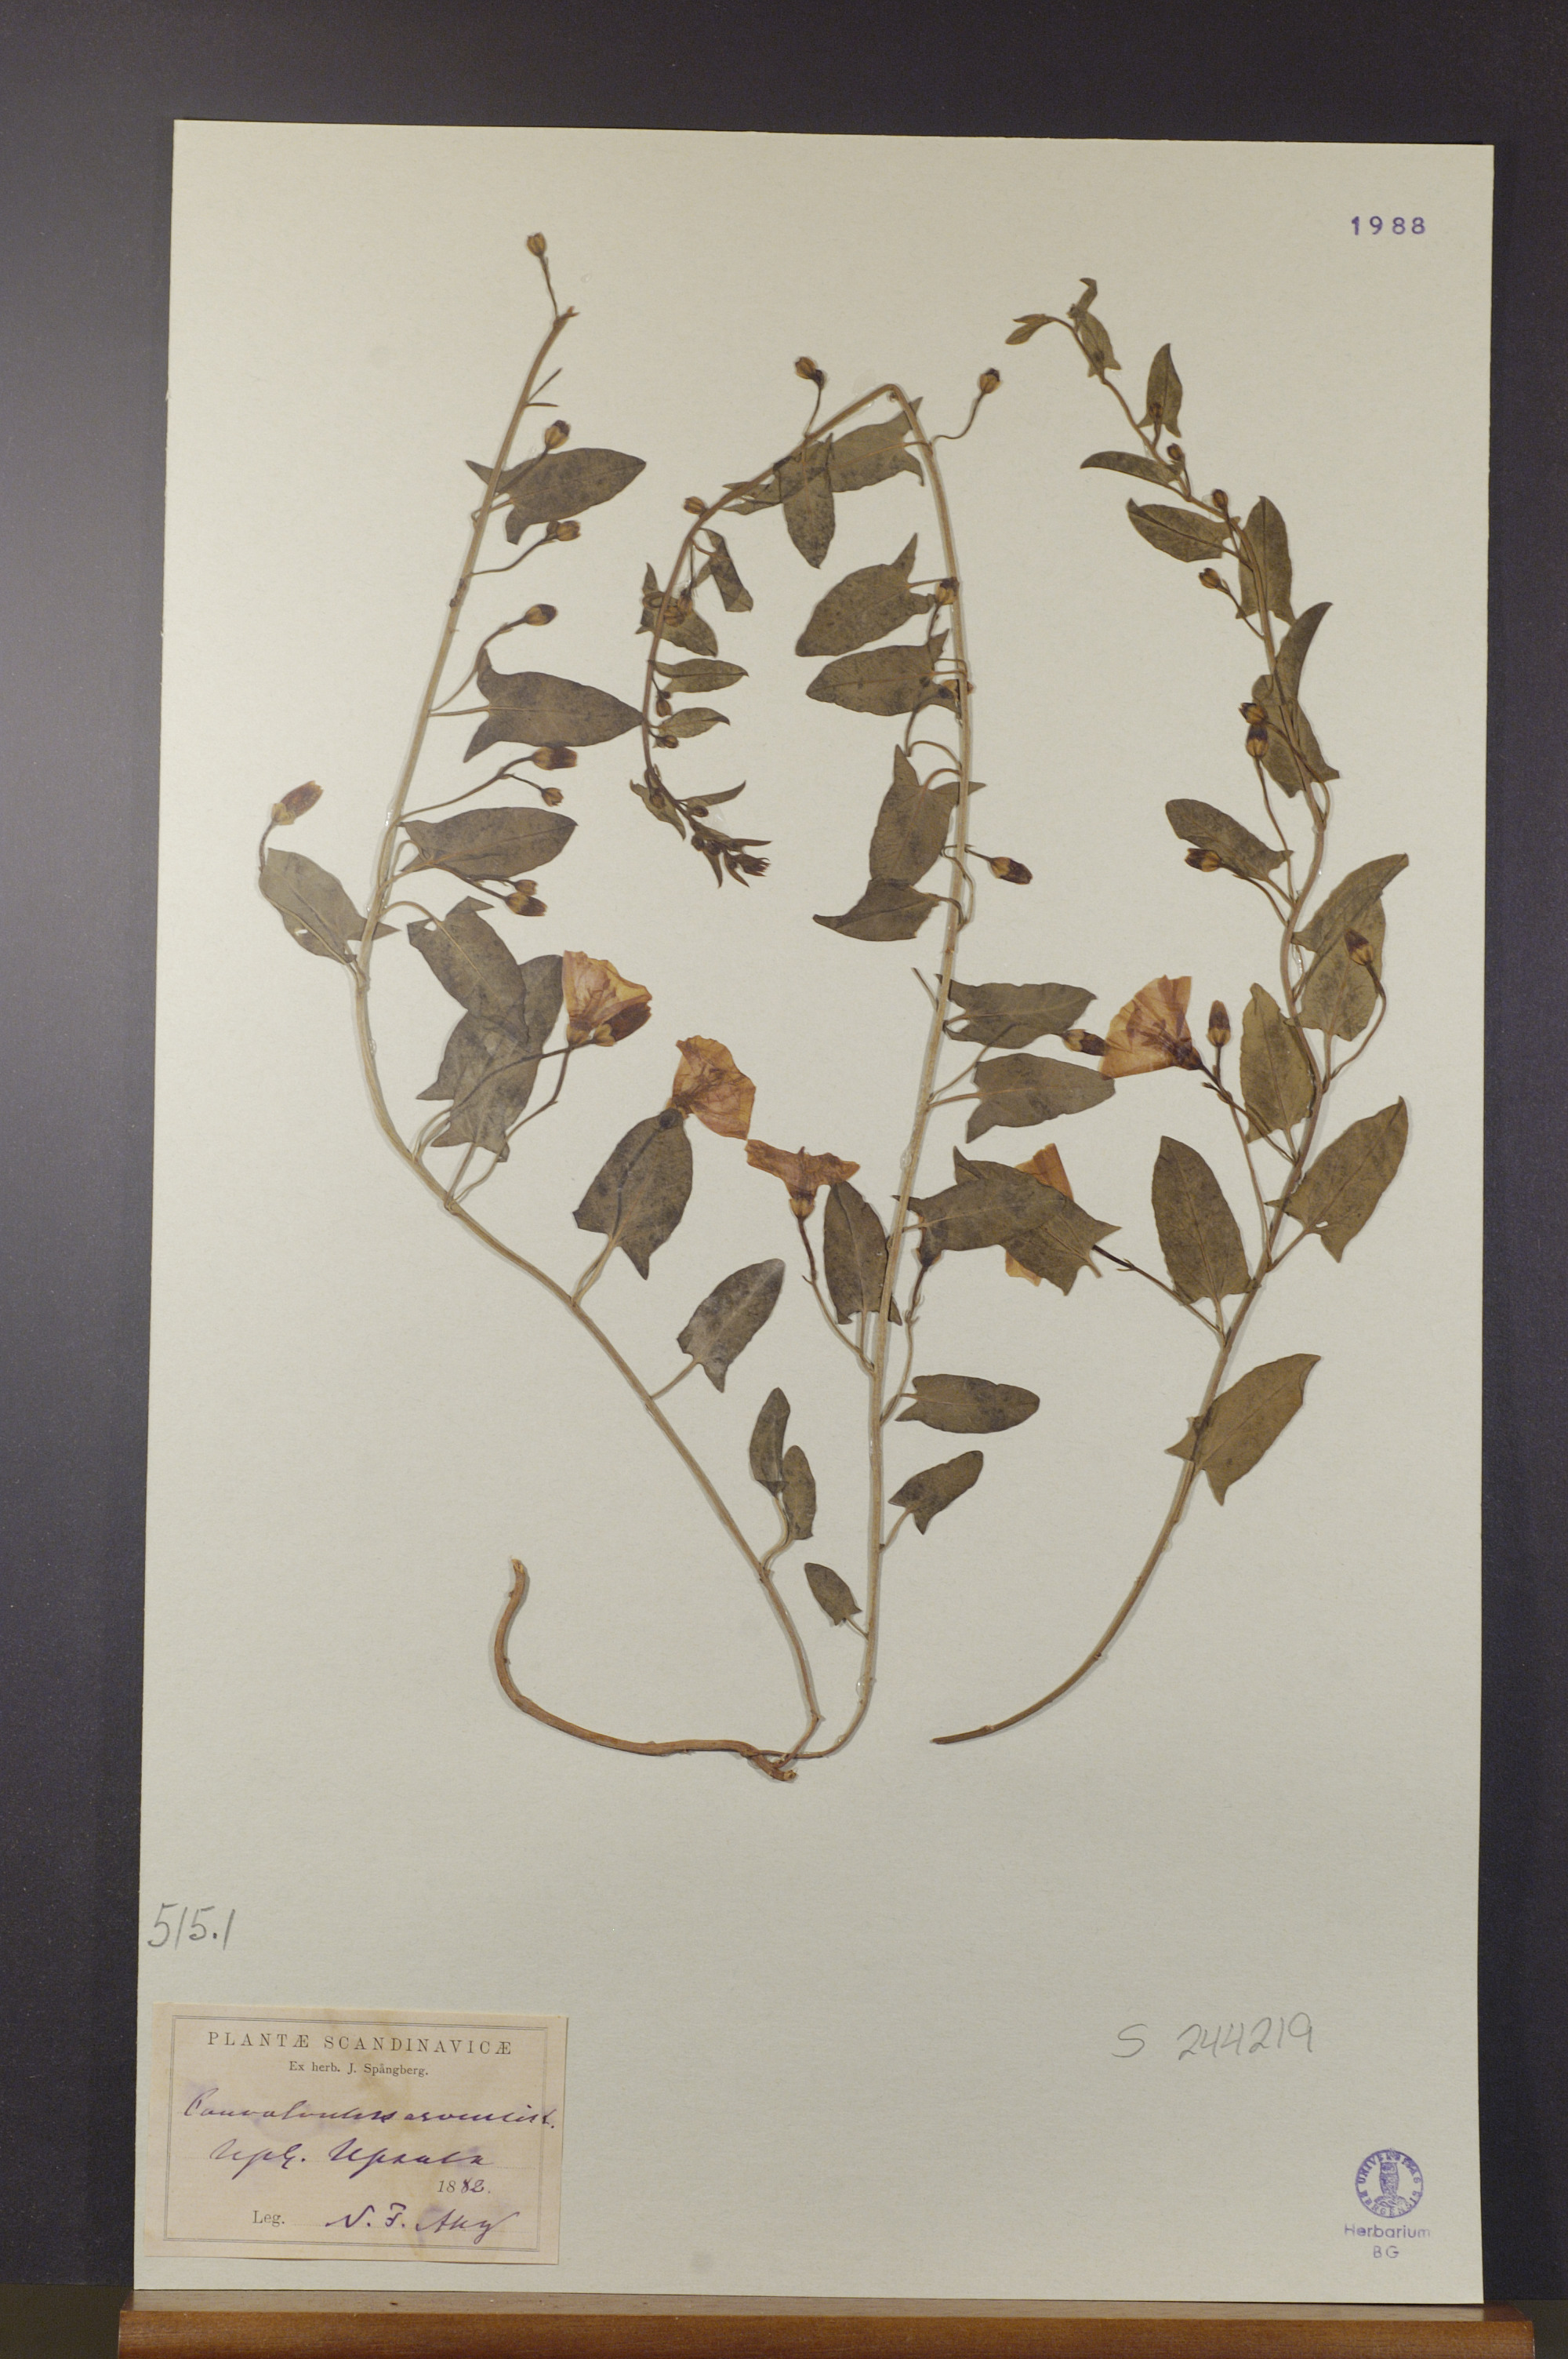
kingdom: Plantae
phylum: Tracheophyta
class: Magnoliopsida
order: Solanales
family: Convolvulaceae
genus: Convolvulus
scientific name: Convolvulus arvensis
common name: Field bindweed
